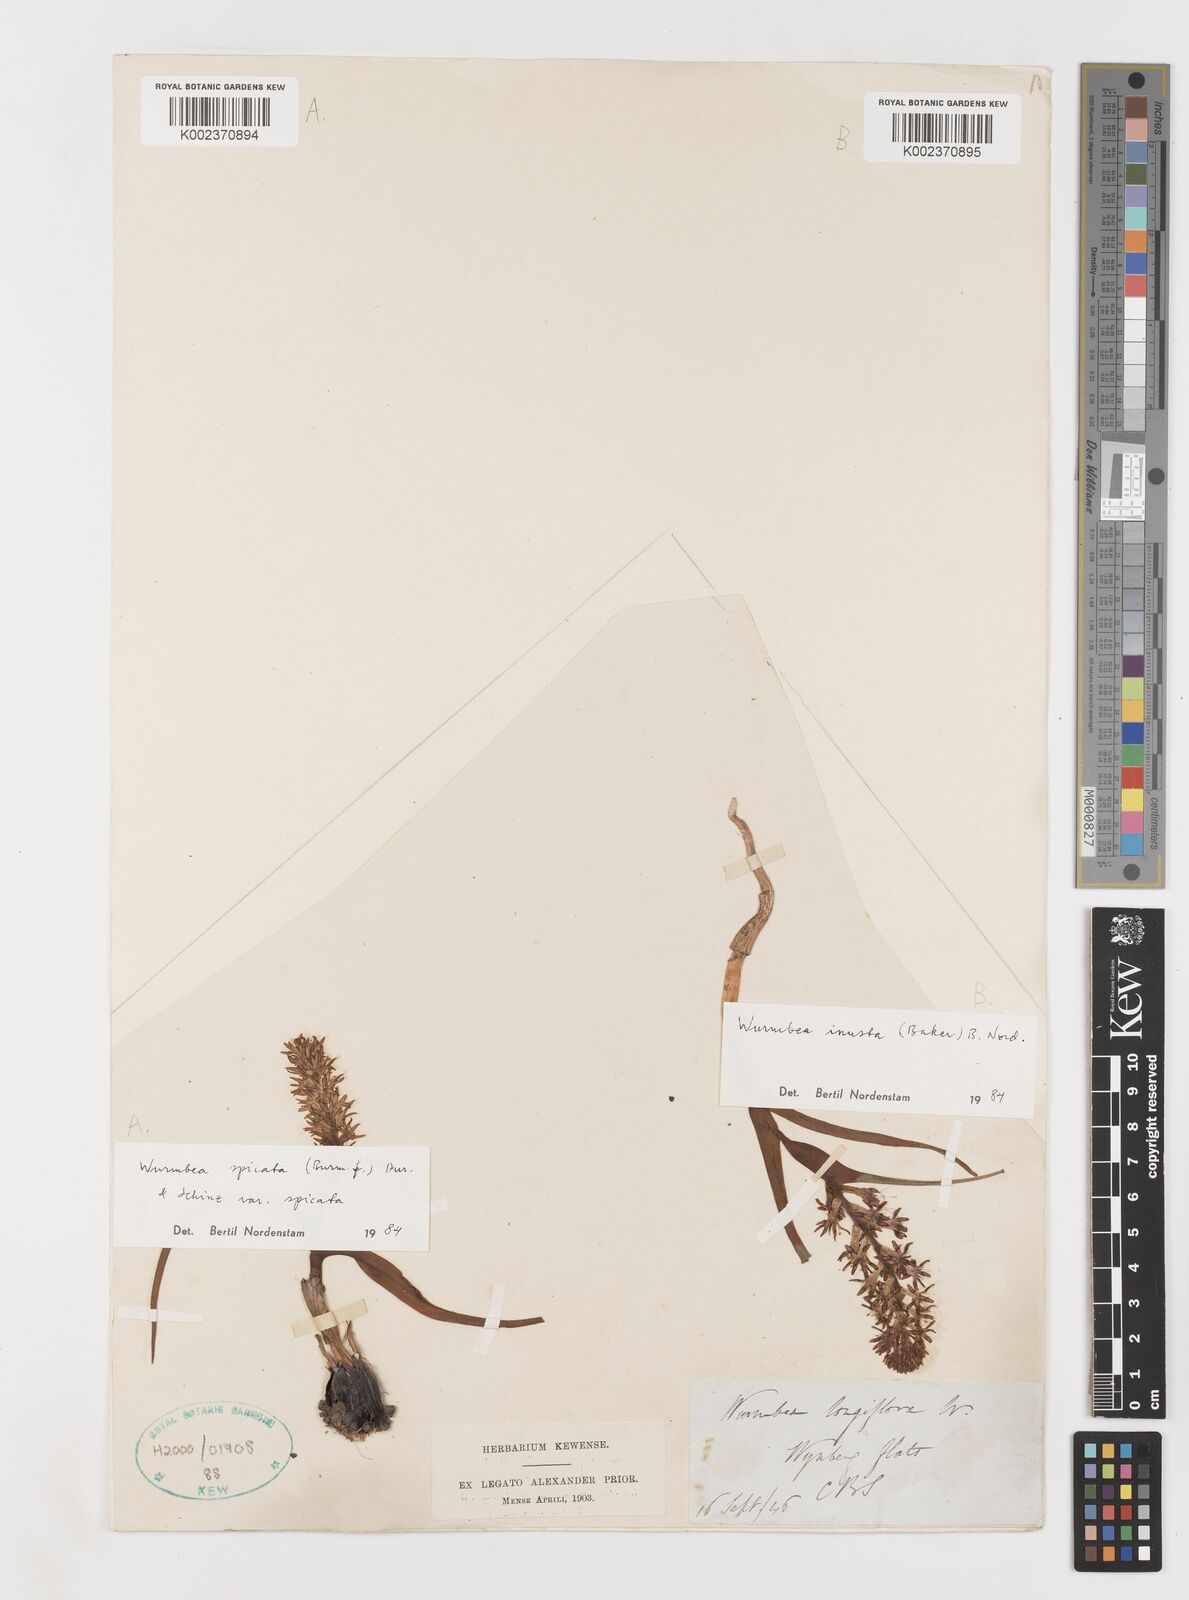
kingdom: Plantae
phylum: Tracheophyta
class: Liliopsida
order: Liliales
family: Colchicaceae
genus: Wurmbea
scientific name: Wurmbea inusta
